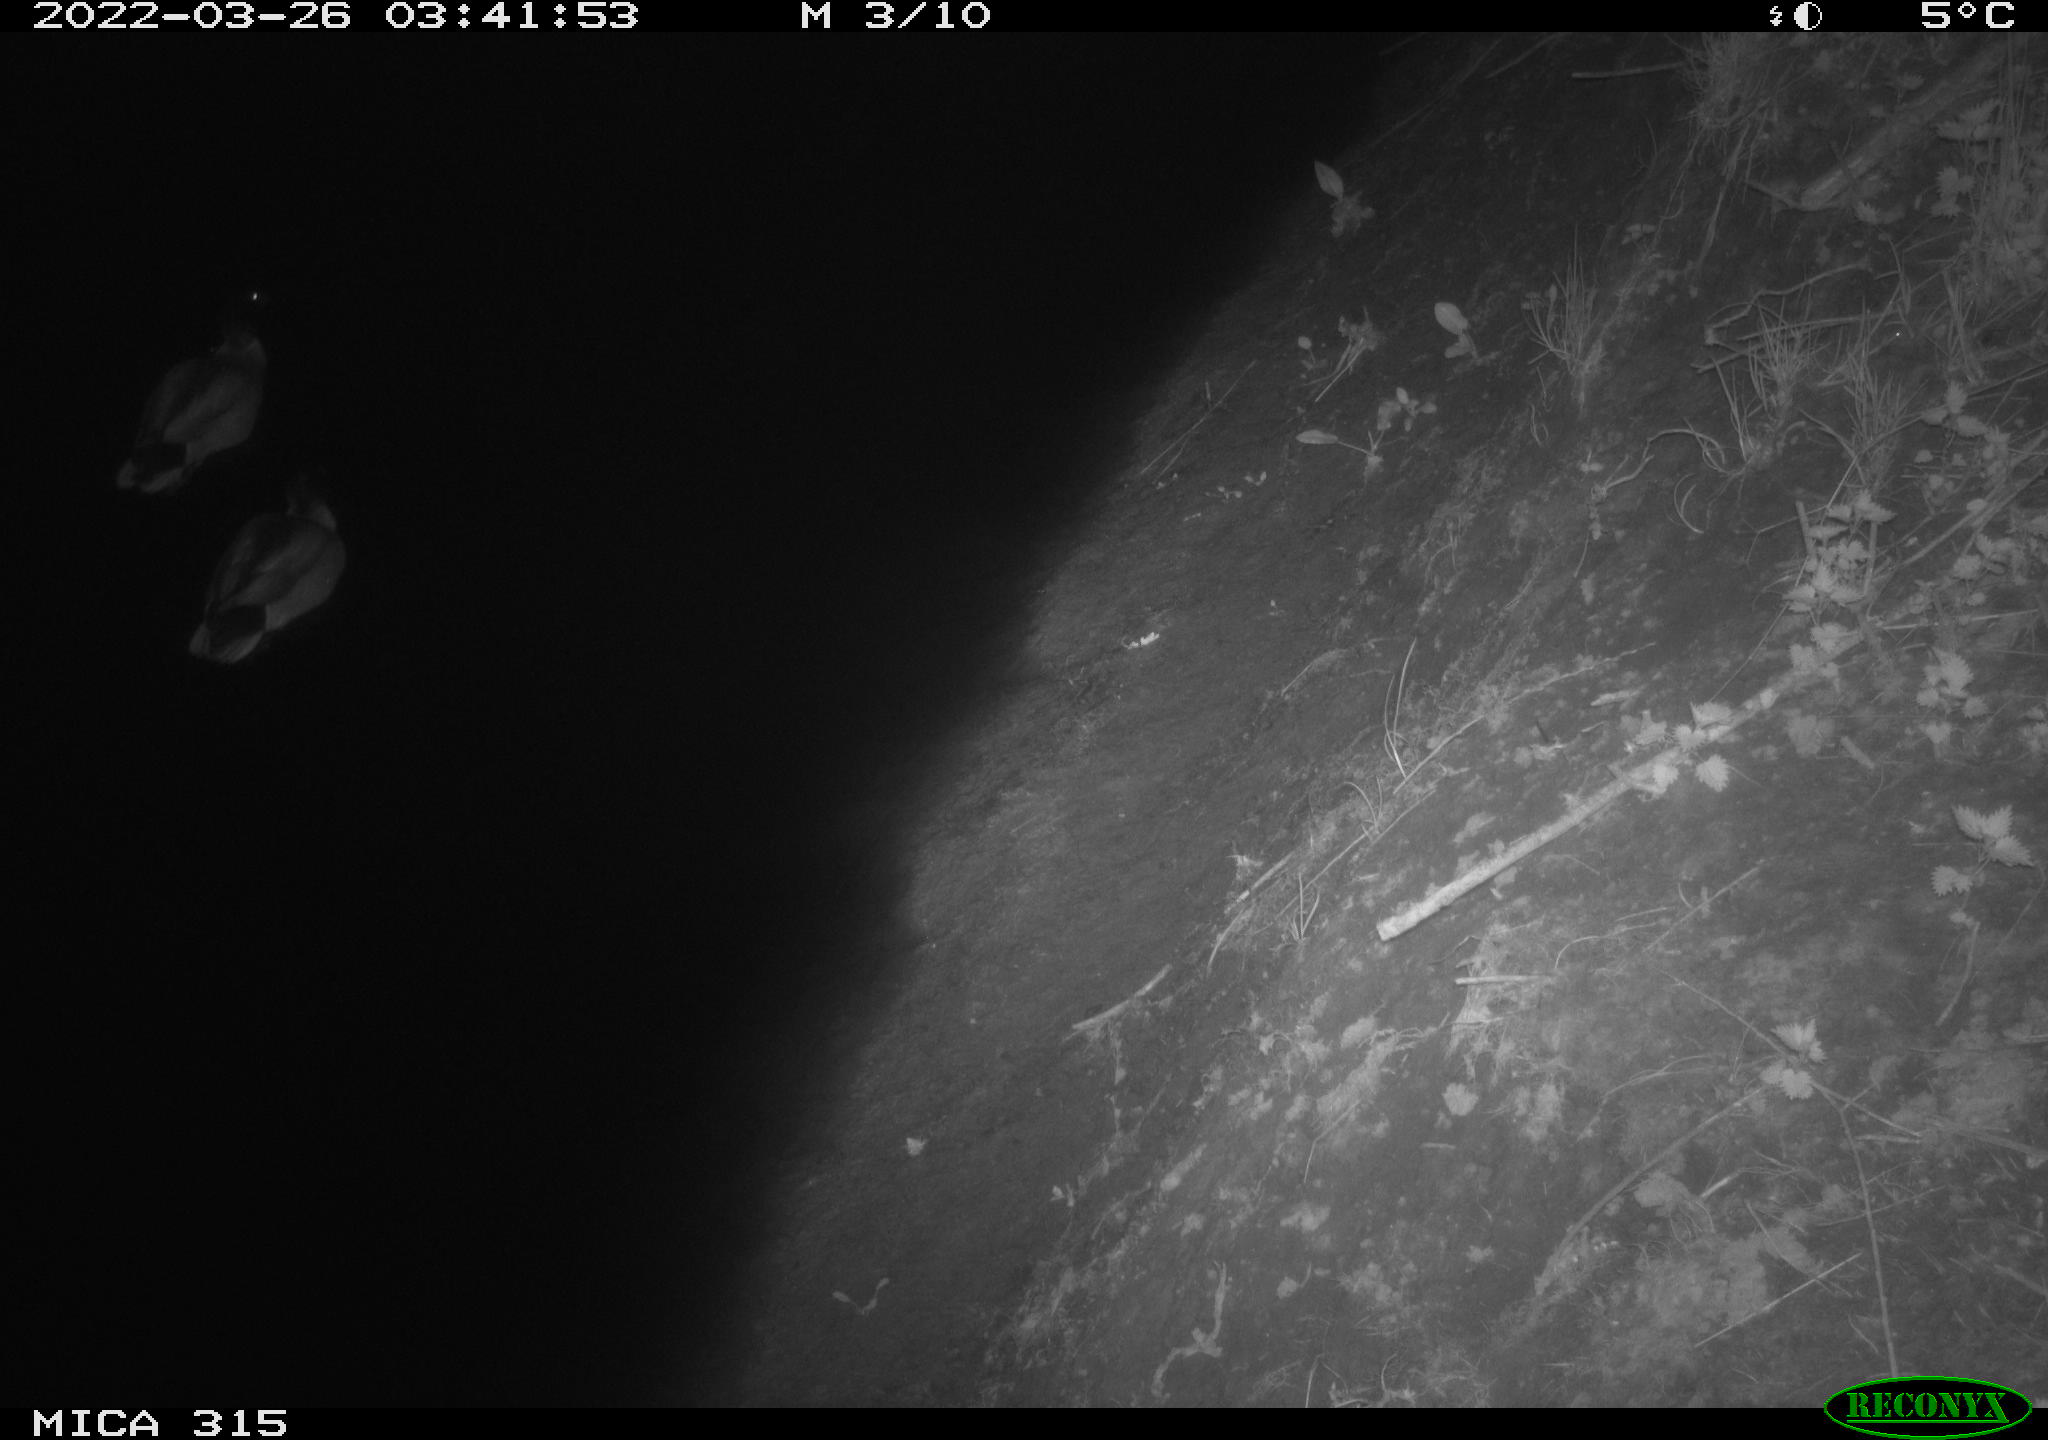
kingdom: Animalia
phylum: Chordata
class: Aves
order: Anseriformes
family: Anatidae
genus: Anas
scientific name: Anas platyrhynchos
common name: Mallard
